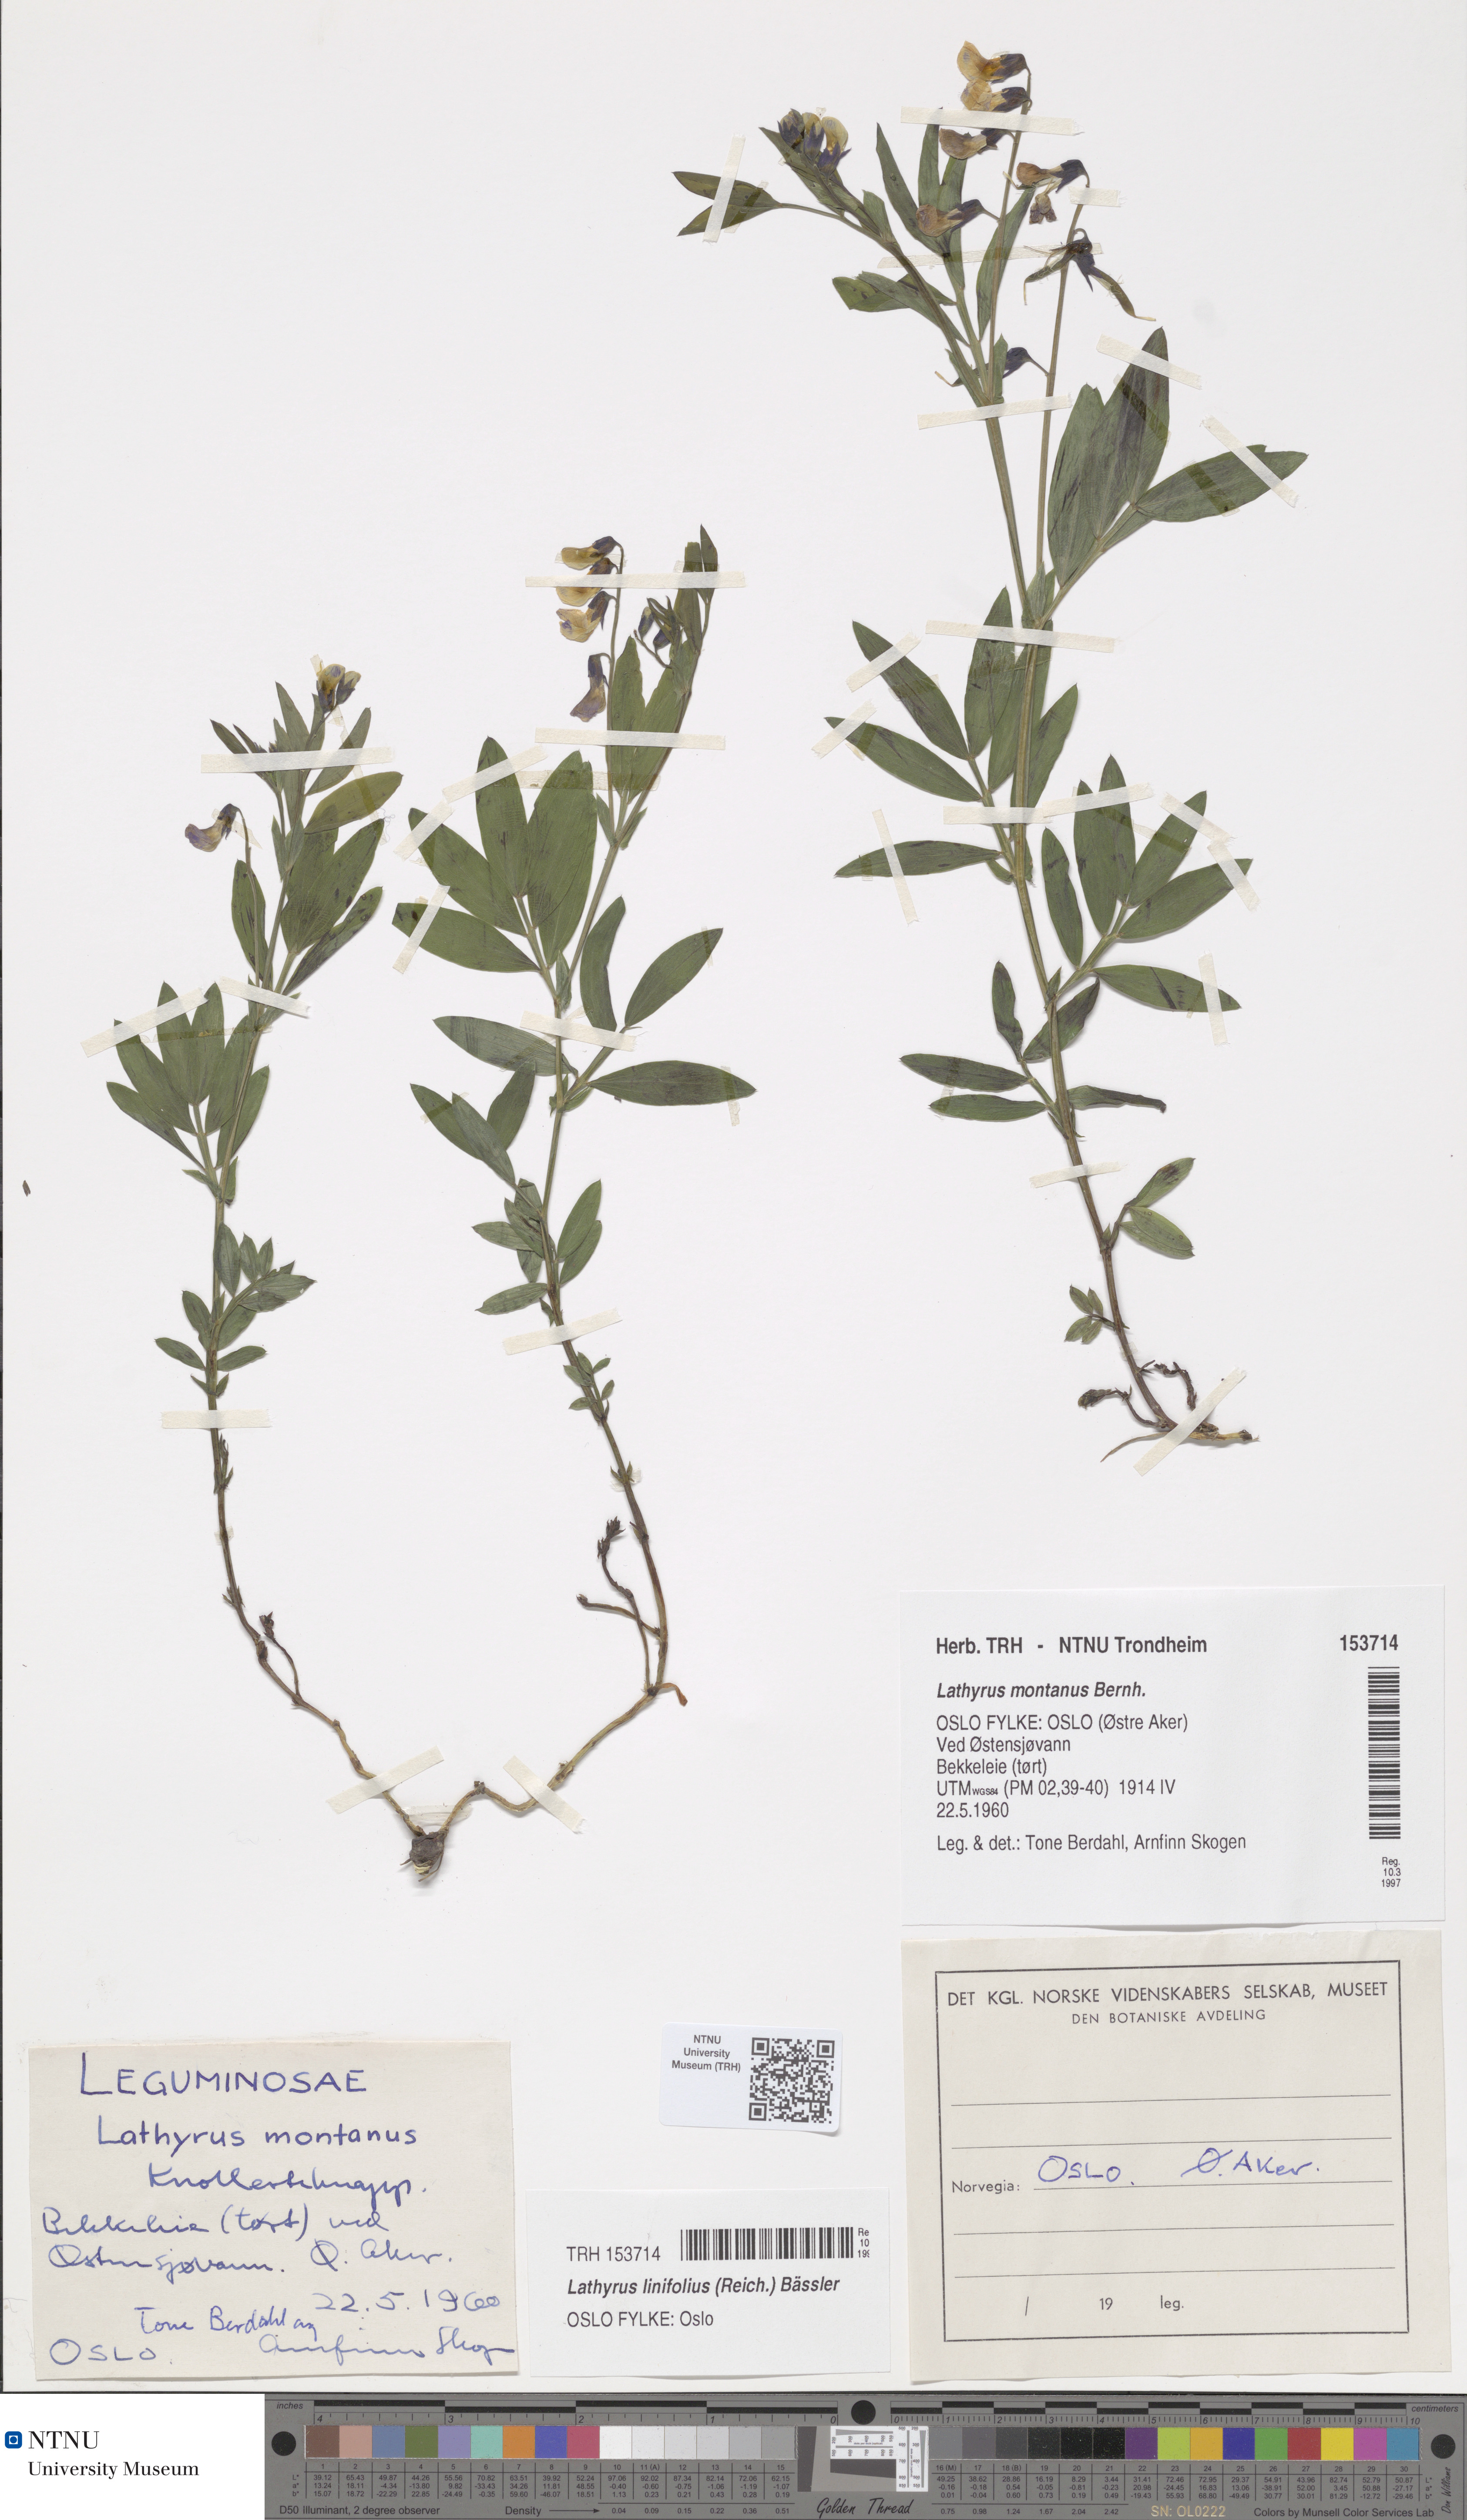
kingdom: Plantae
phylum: Tracheophyta
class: Magnoliopsida
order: Fabales
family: Fabaceae
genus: Lathyrus
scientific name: Lathyrus linifolius
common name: Bitter-vetch
